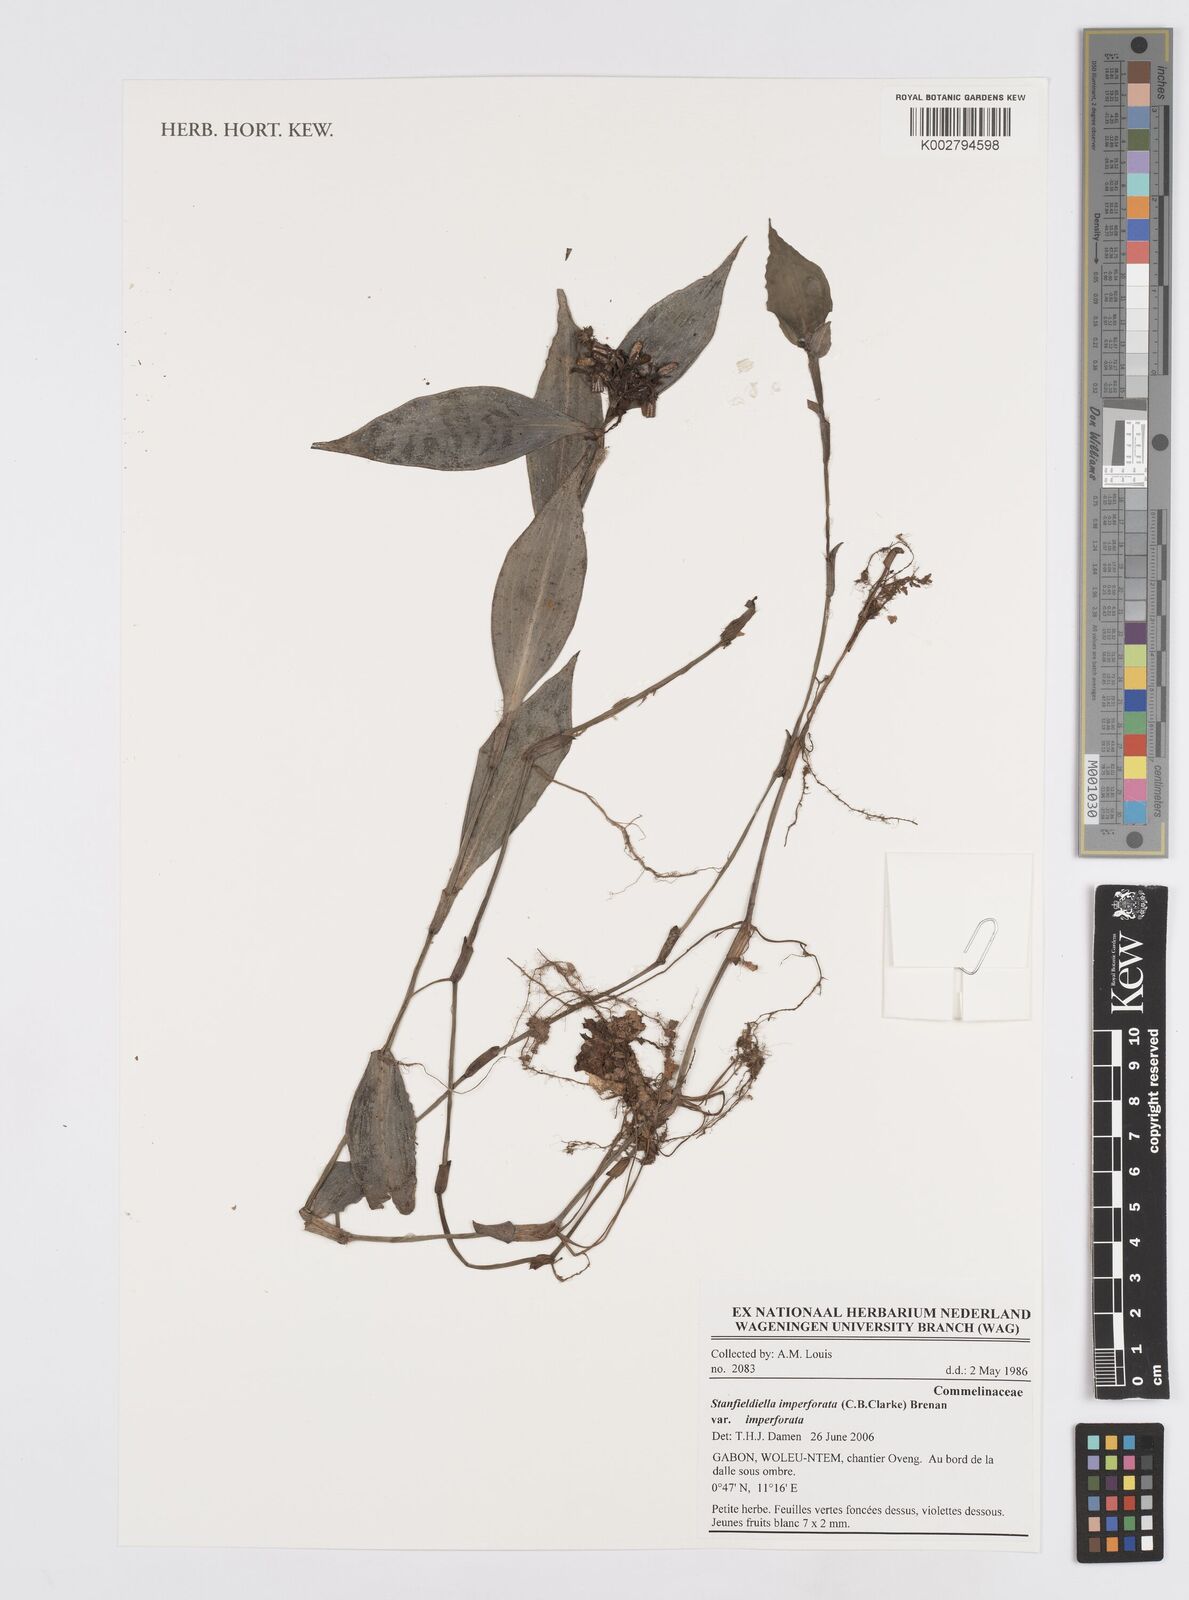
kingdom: Plantae
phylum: Tracheophyta
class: Liliopsida
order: Commelinales
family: Commelinaceae
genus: Stanfieldiella
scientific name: Stanfieldiella imperforata
